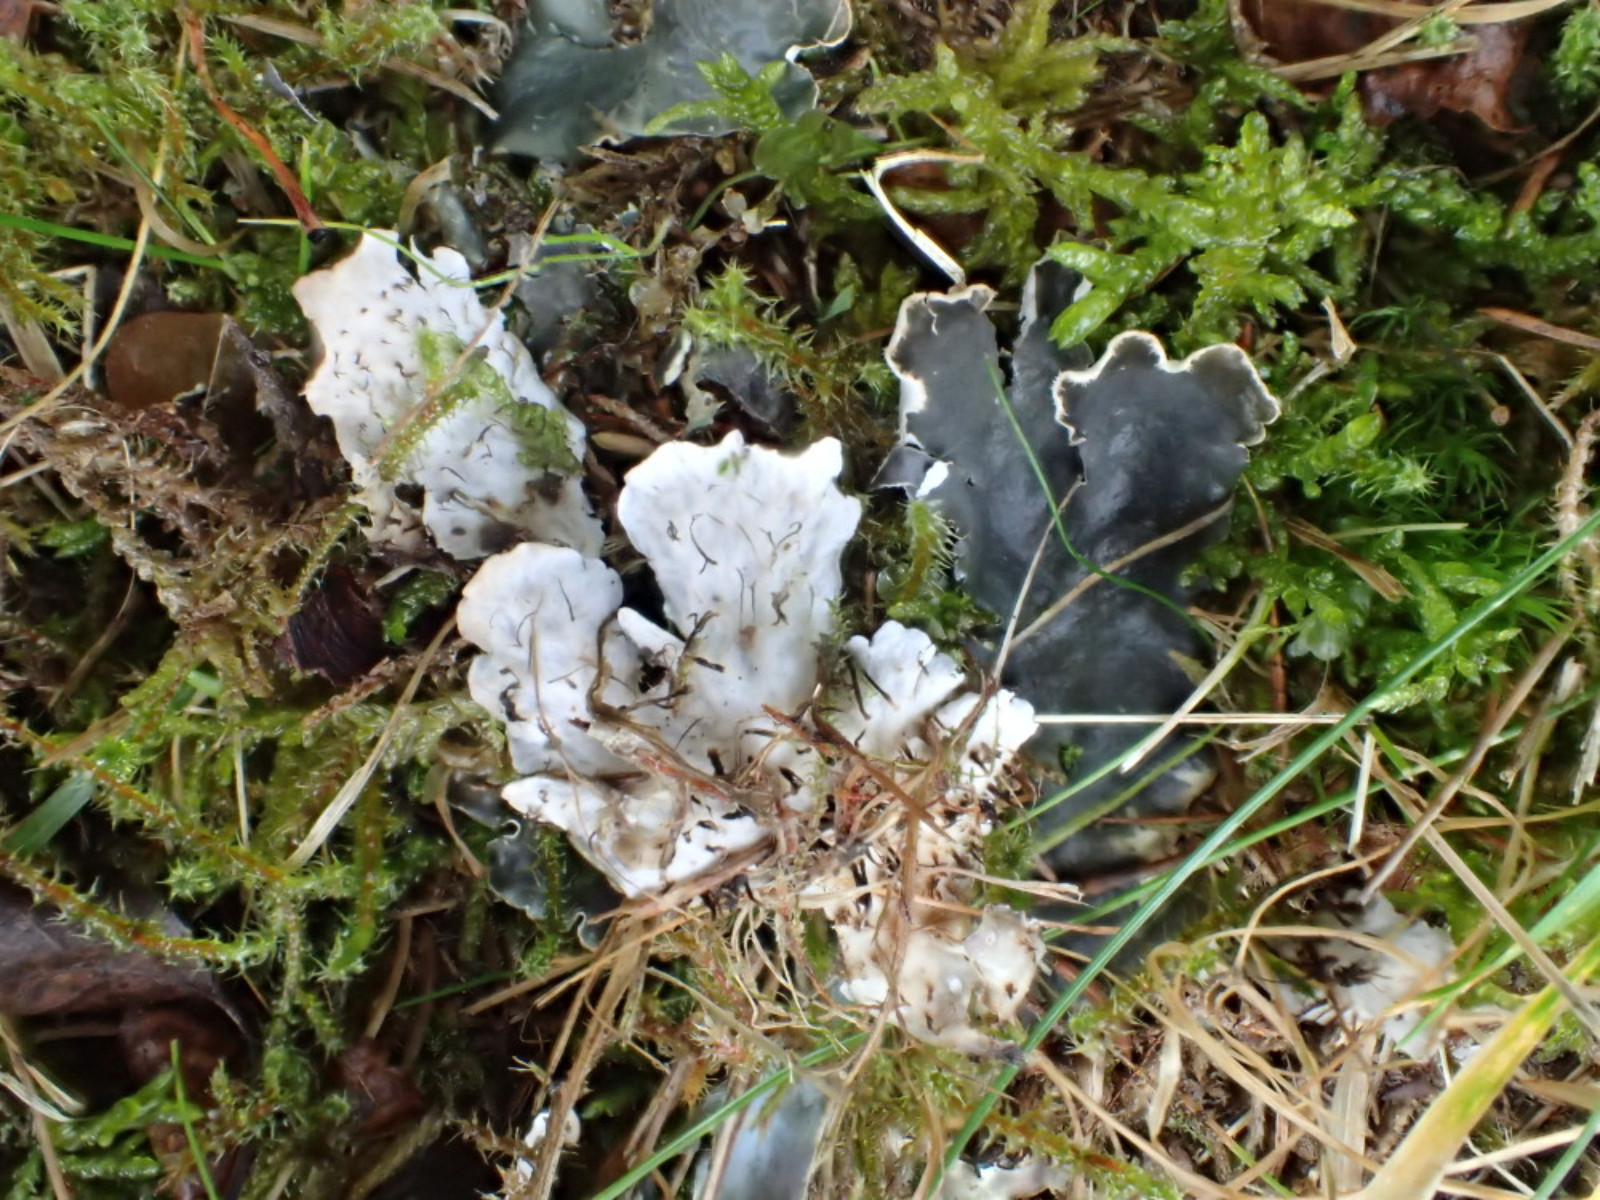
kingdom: Fungi
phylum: Ascomycota
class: Lecanoromycetes
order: Peltigerales
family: Peltigeraceae
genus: Peltigera
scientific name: Peltigera hymenina
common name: hinde-skjoldlav
